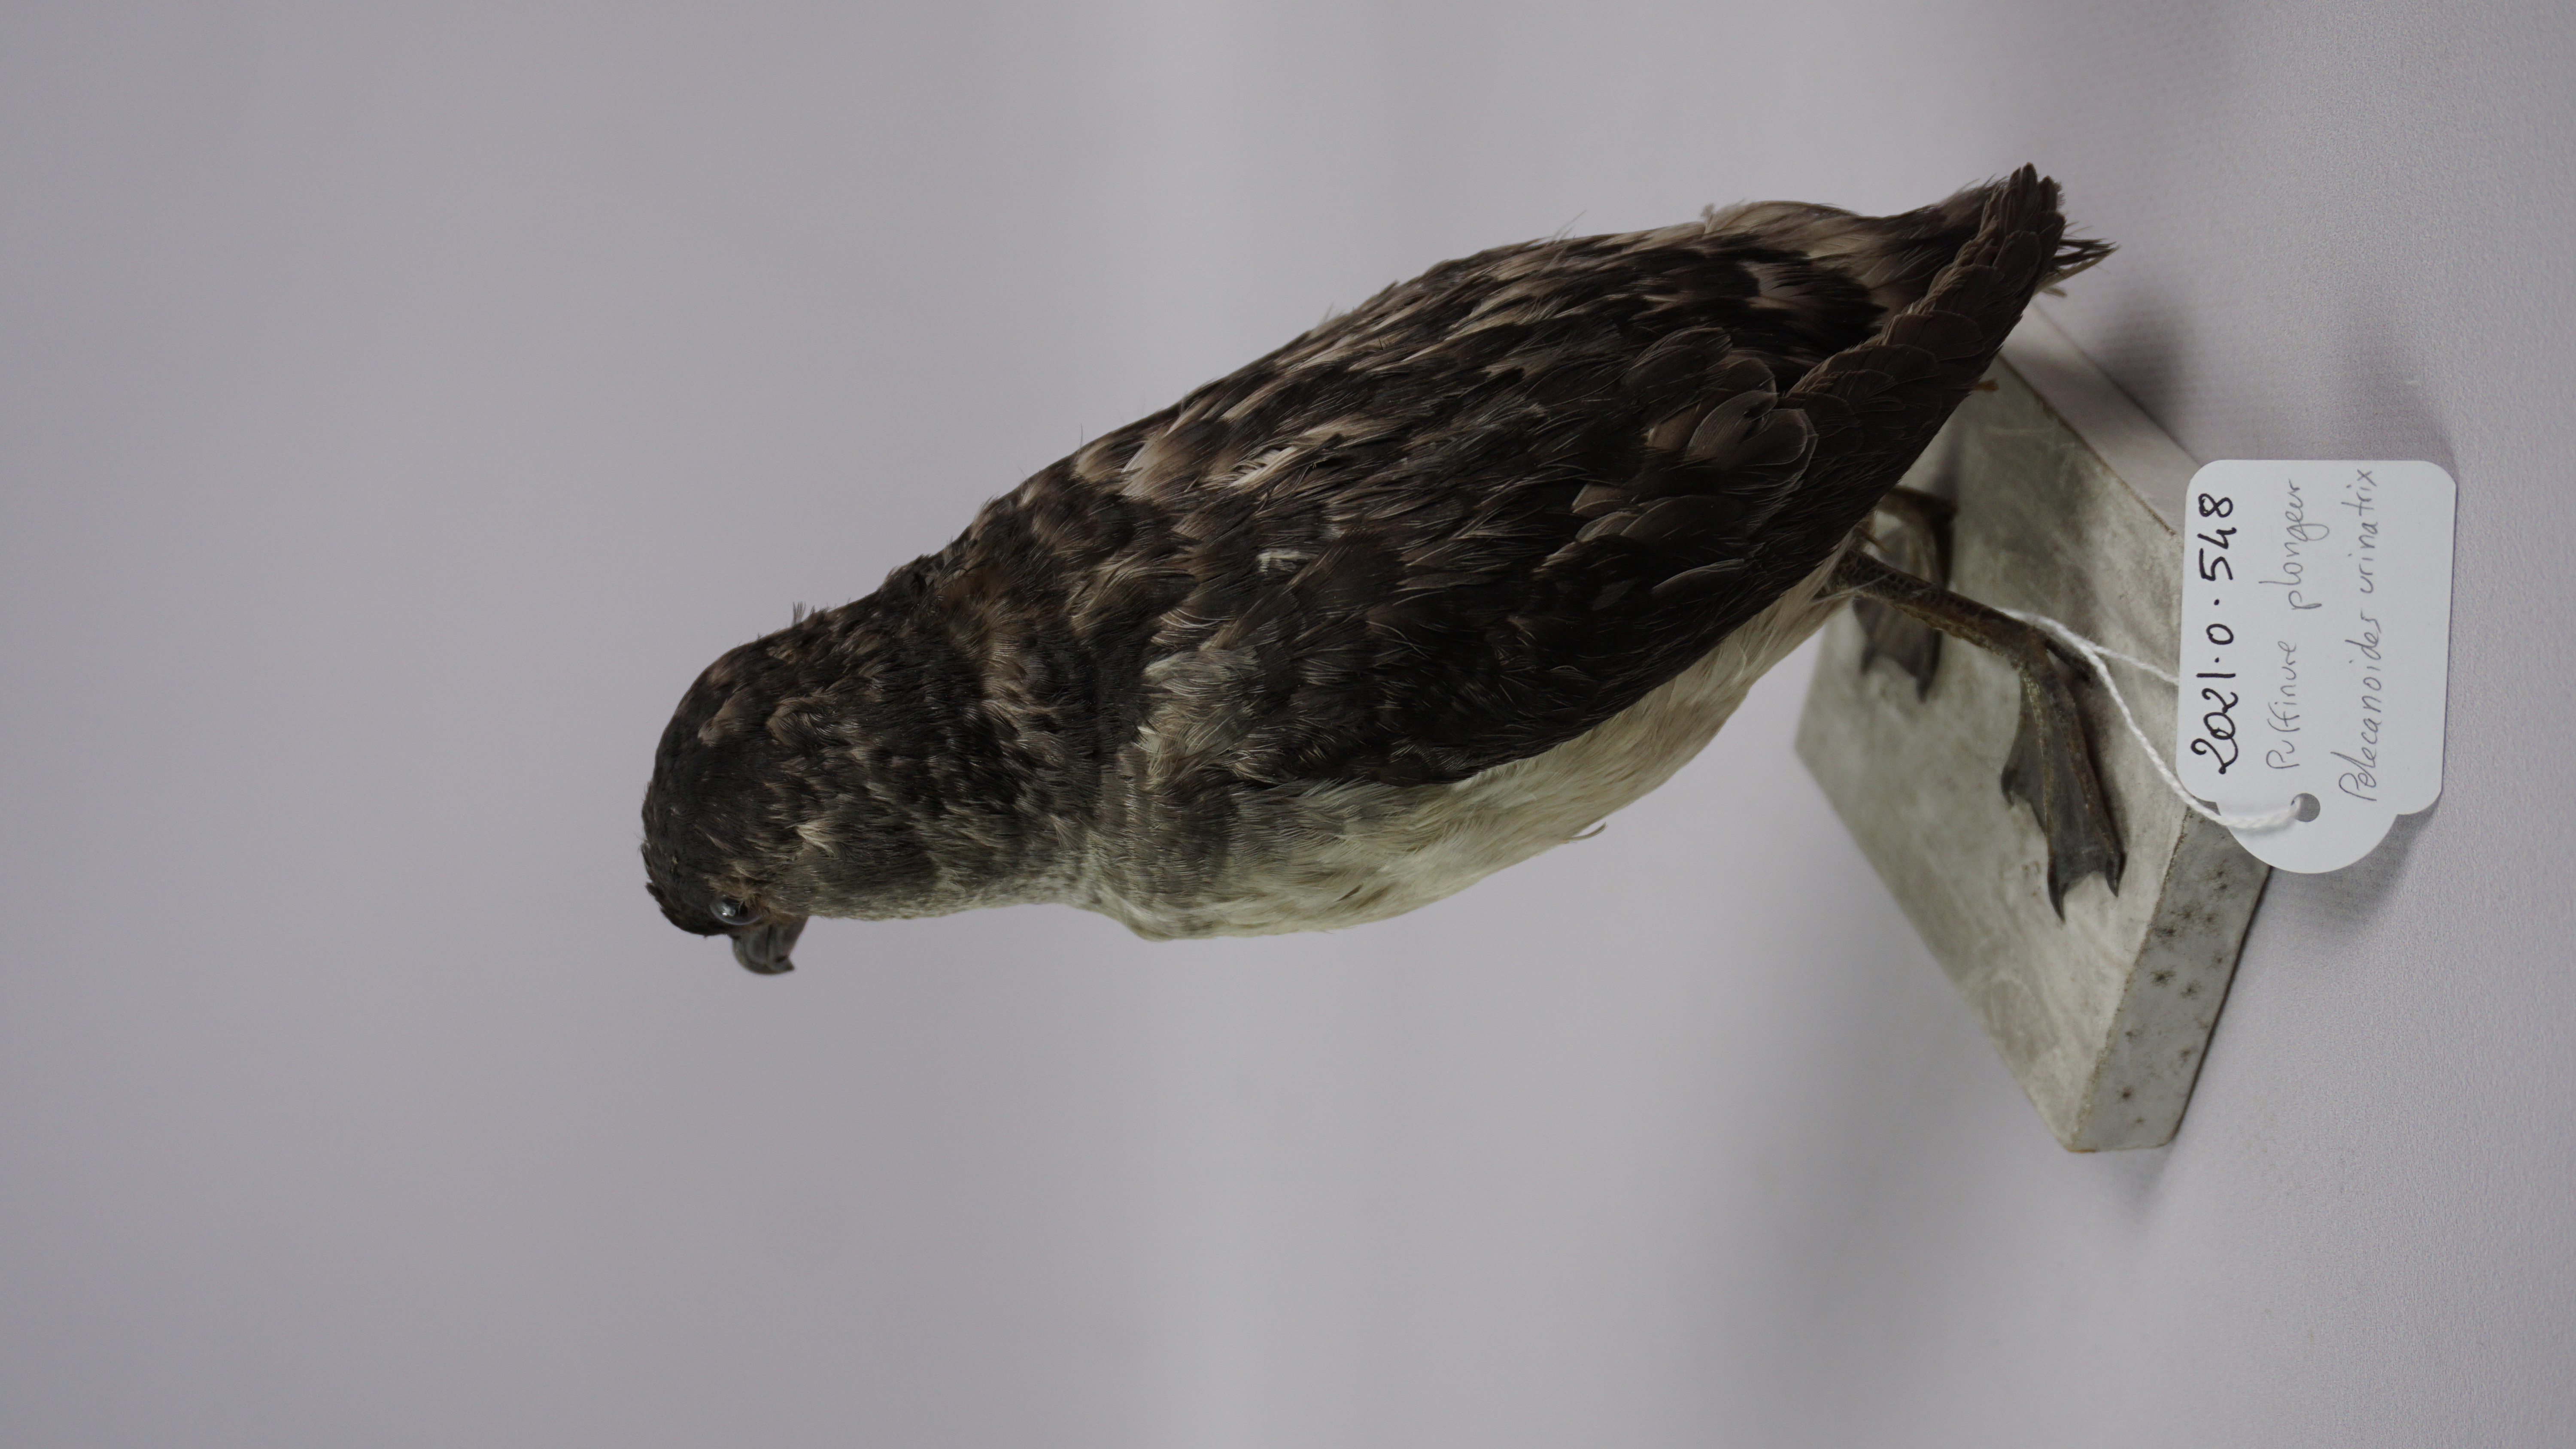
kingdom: Animalia
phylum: Chordata
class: Aves
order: Procellariiformes
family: Pelecanoididae
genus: Pelecanoides
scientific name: Pelecanoides urinatrix
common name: Common diving-petrel
